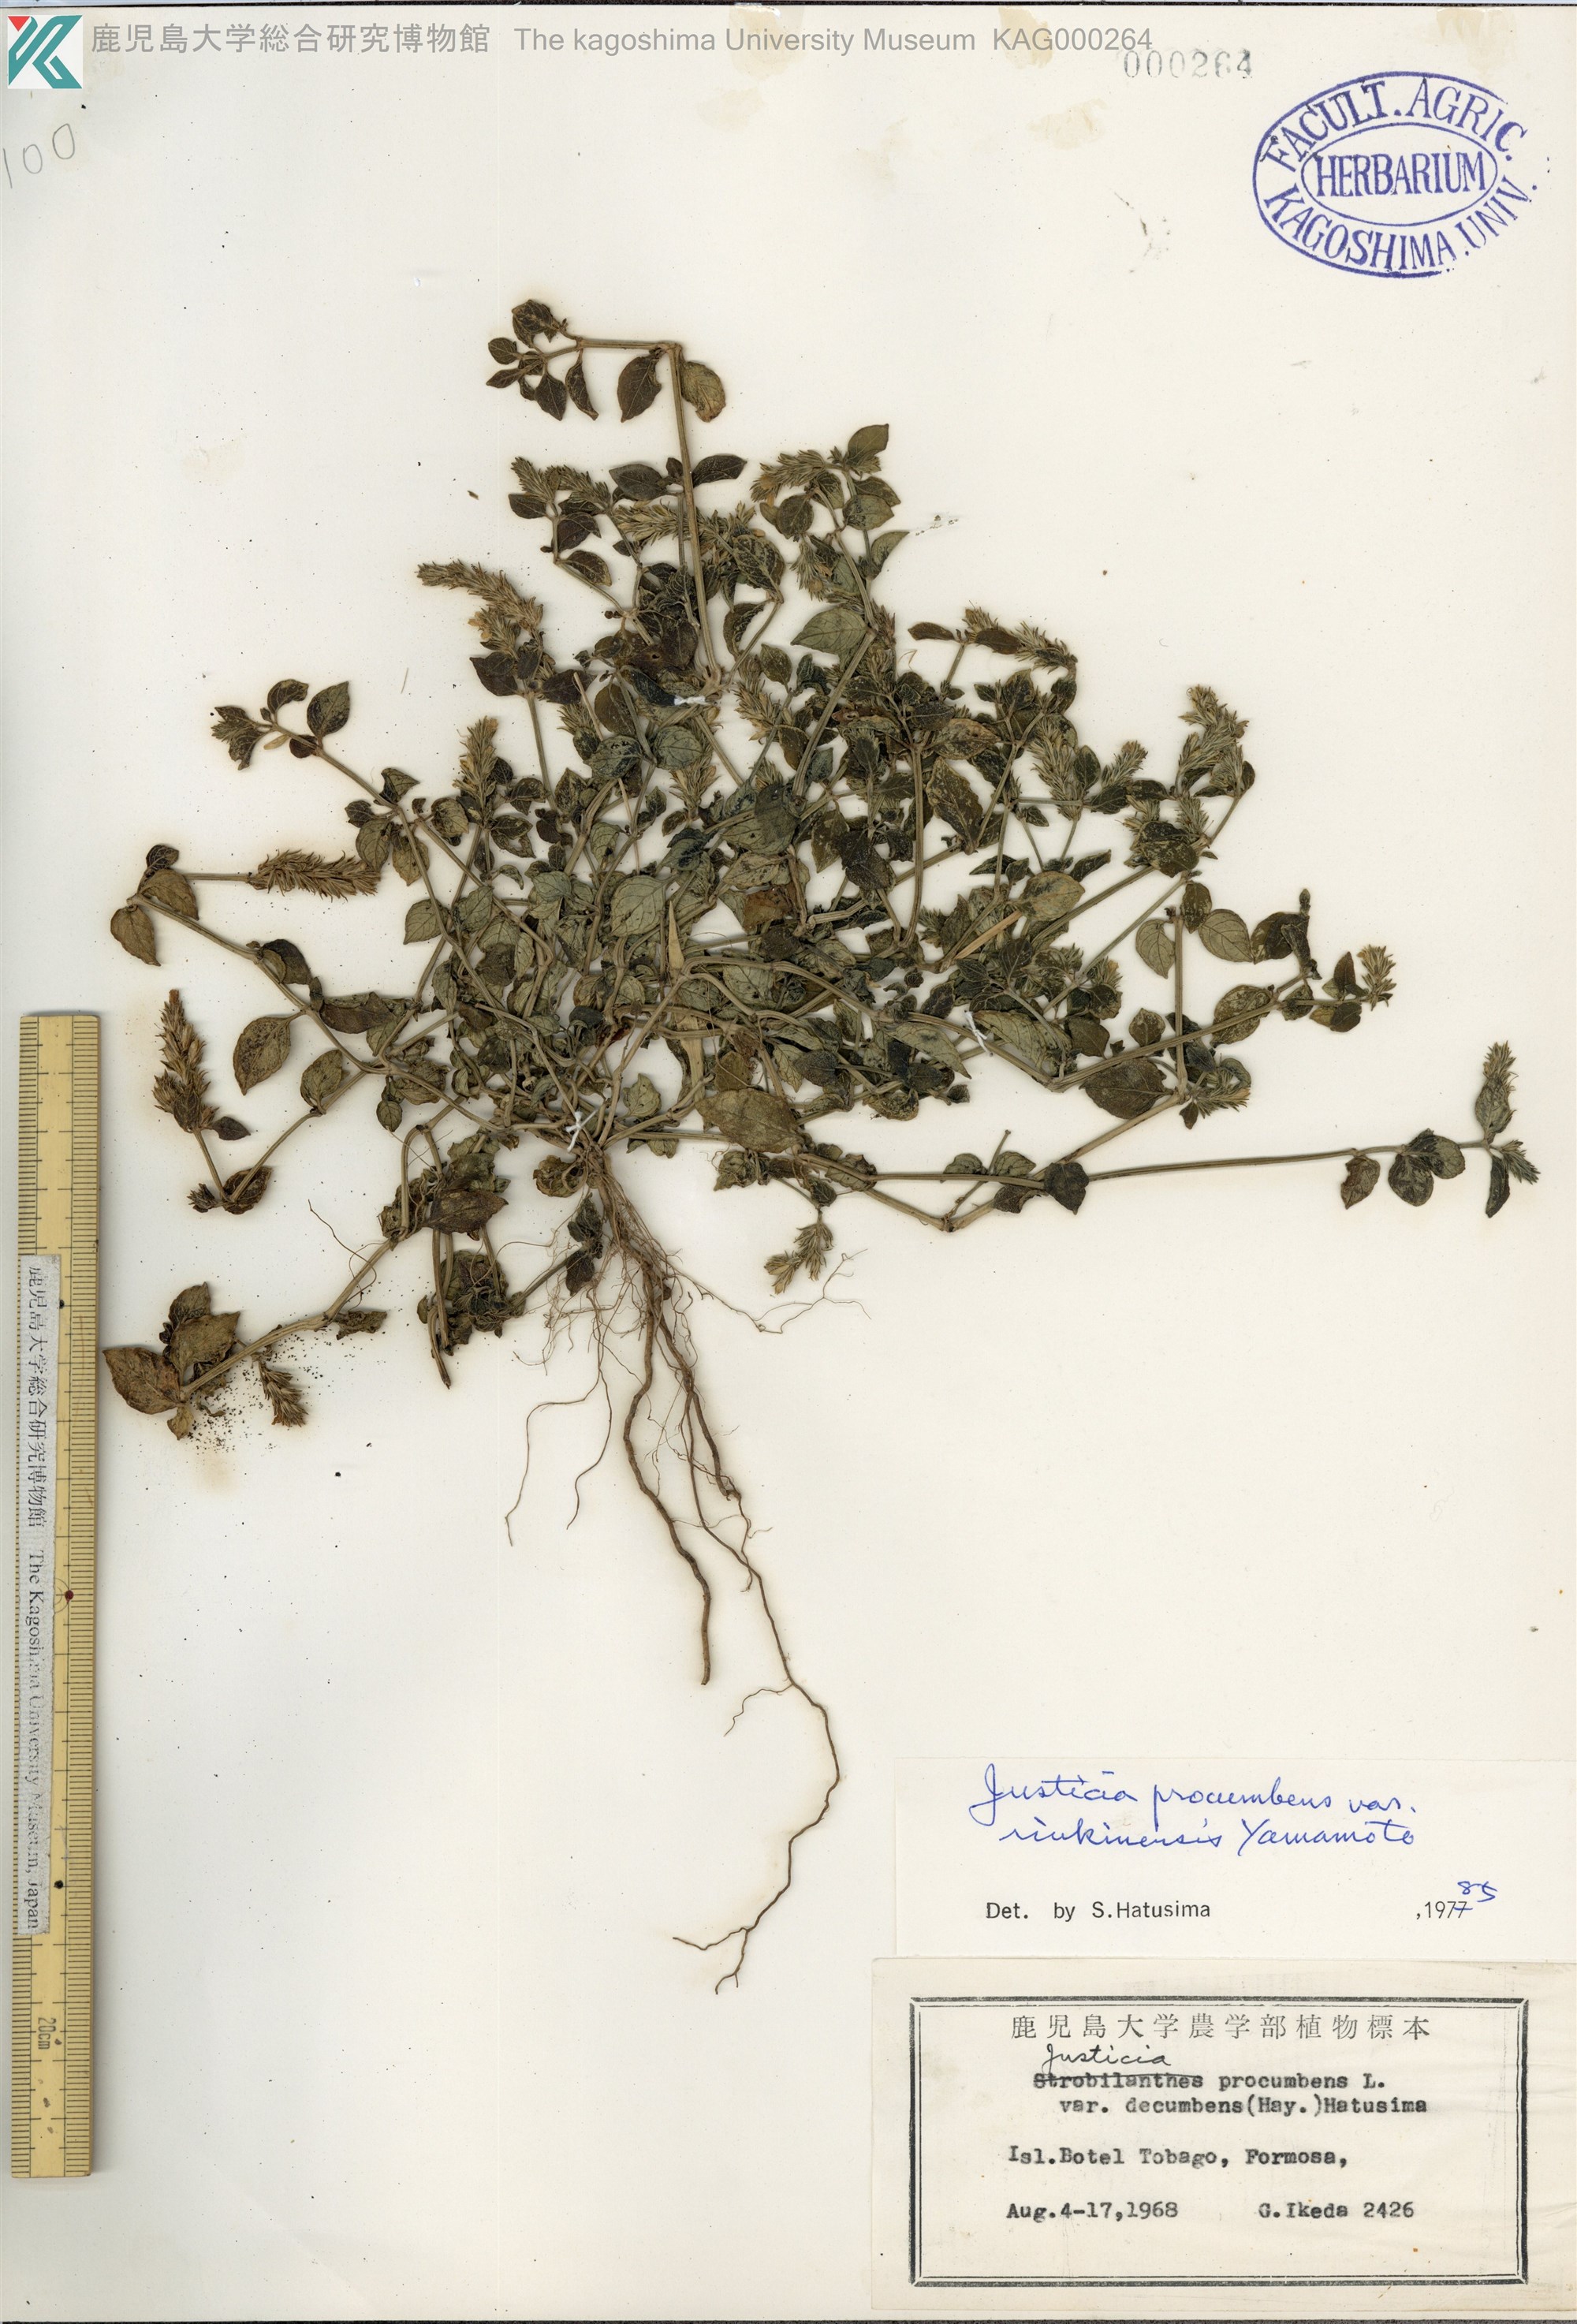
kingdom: Plantae
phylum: Tracheophyta
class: Magnoliopsida
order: Lamiales
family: Acanthaceae
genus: Rostellularia
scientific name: Rostellularia procumbens
